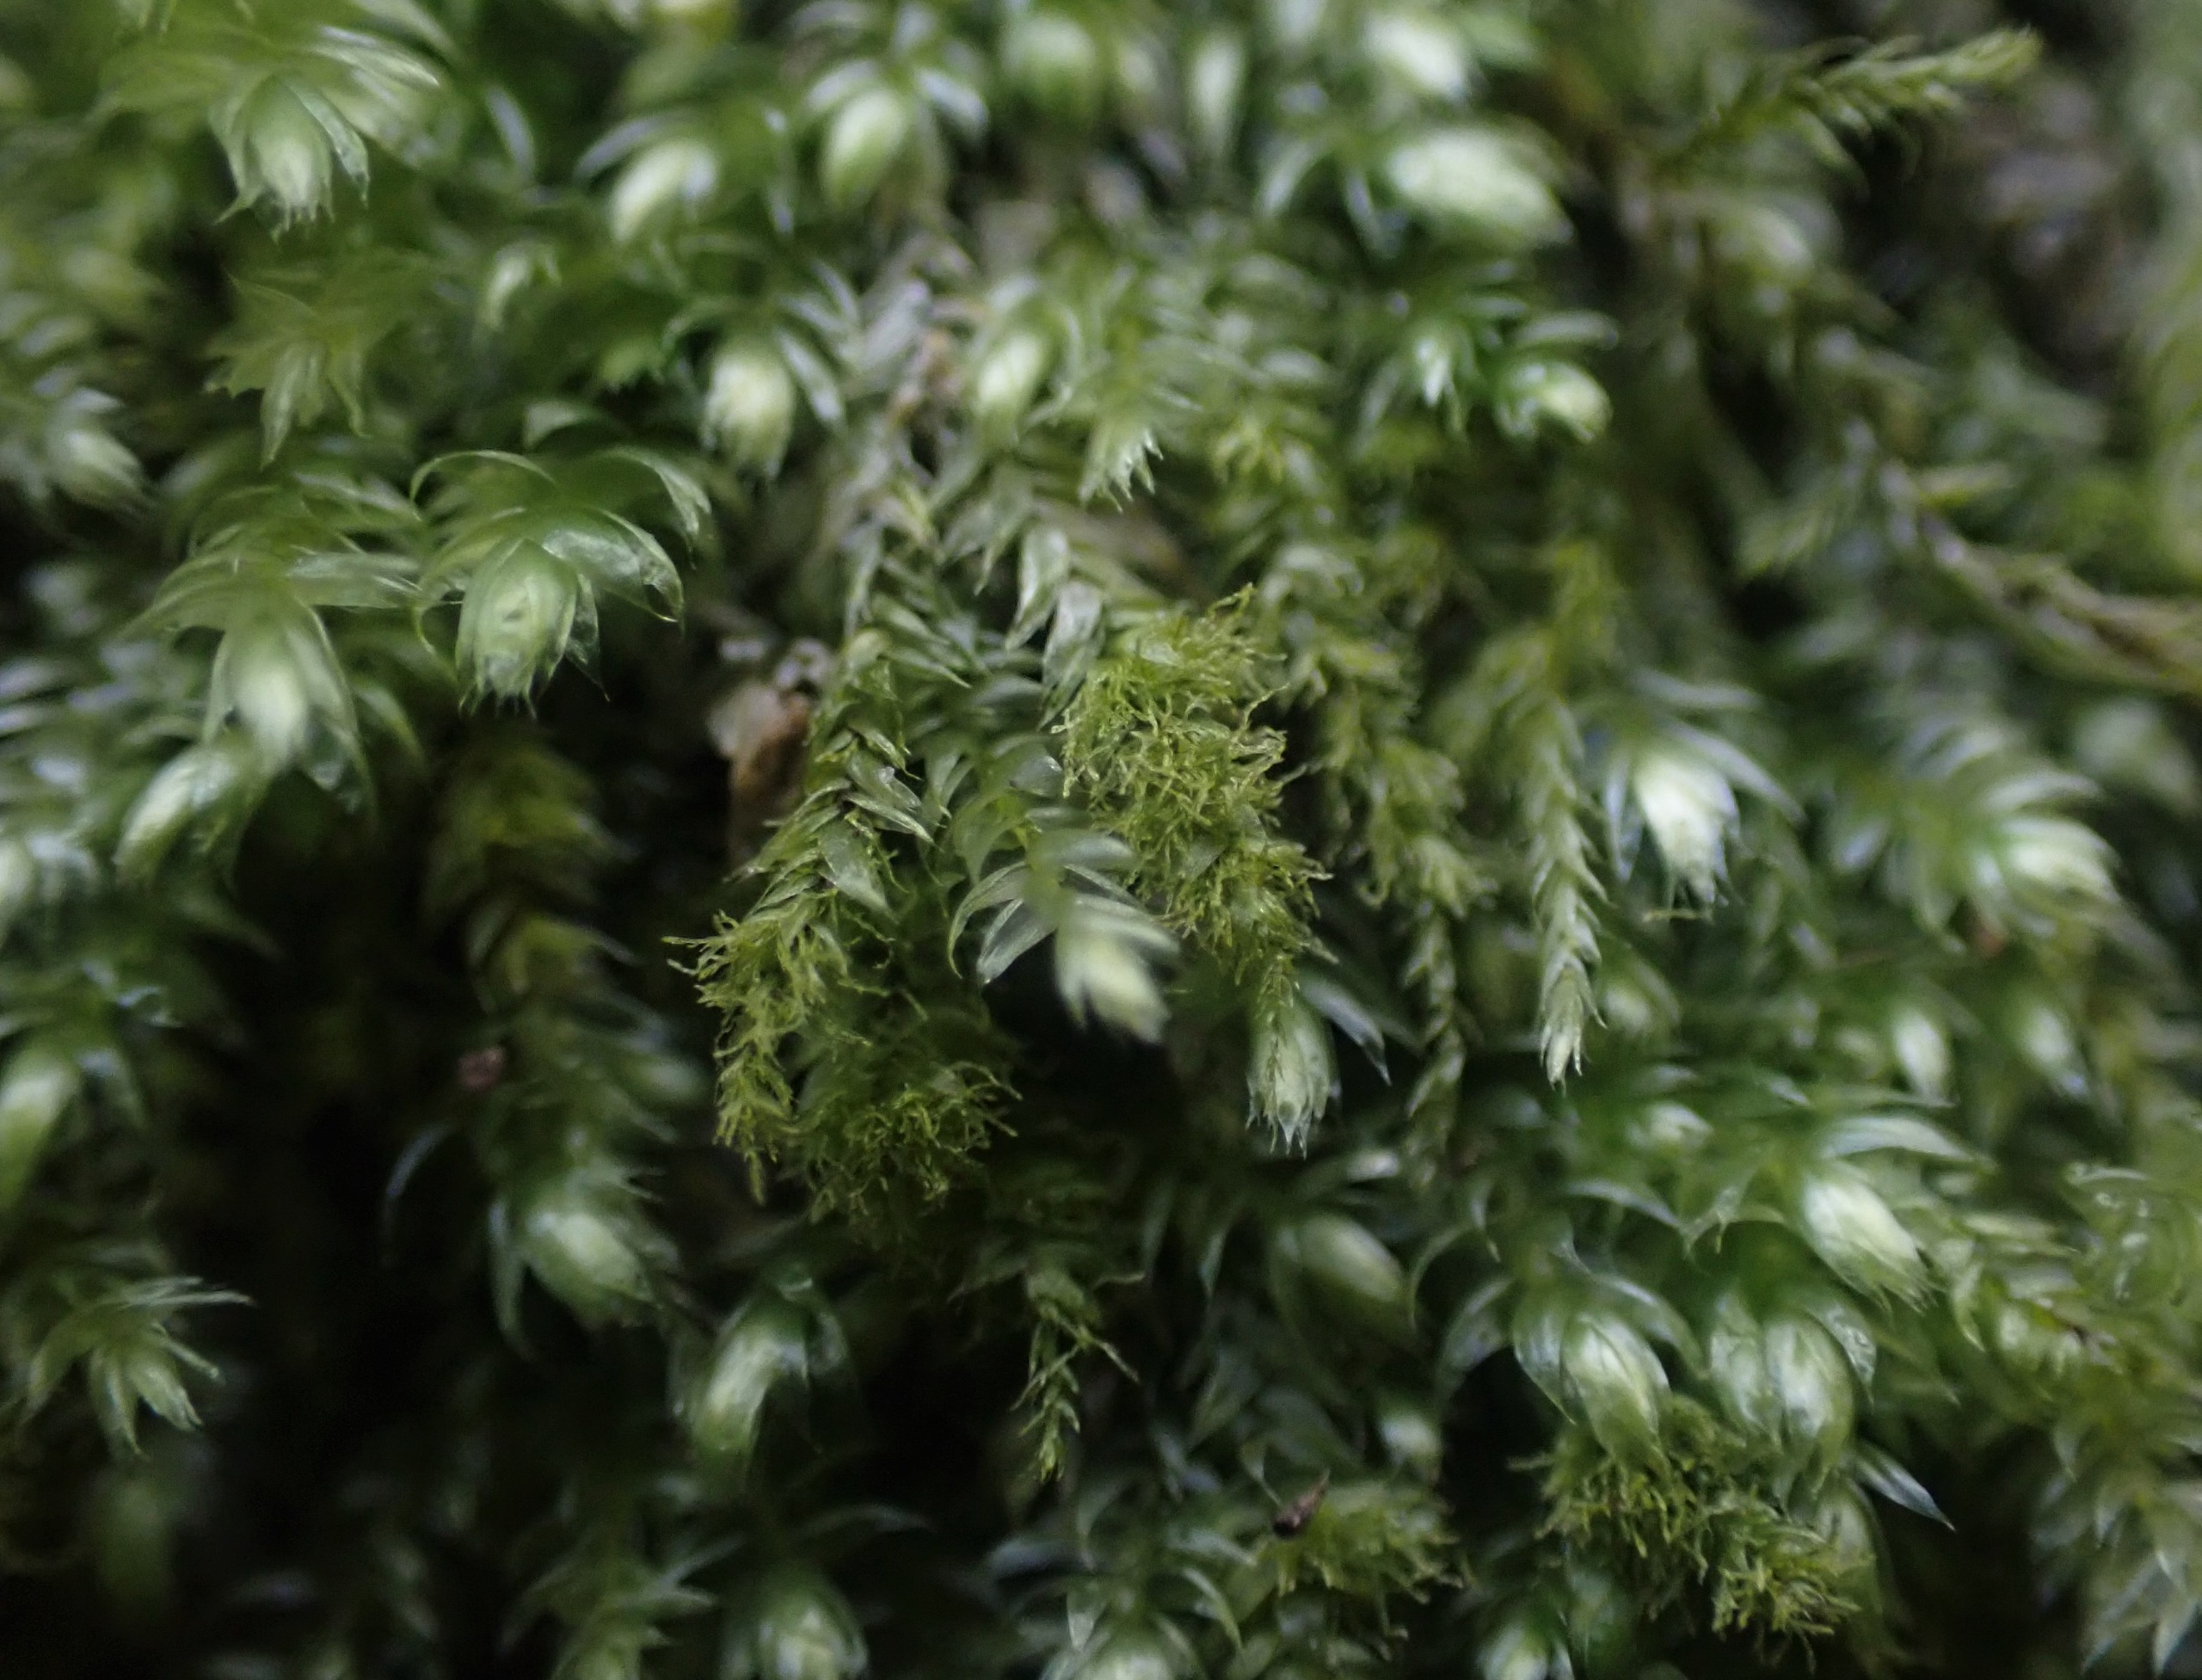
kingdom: Plantae
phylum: Bryophyta
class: Bryopsida
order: Hypnales
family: Plagiotheciaceae
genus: Pseudotaxiphyllum
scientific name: Pseudotaxiphyllum elegans
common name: Skinnende ynglegren
